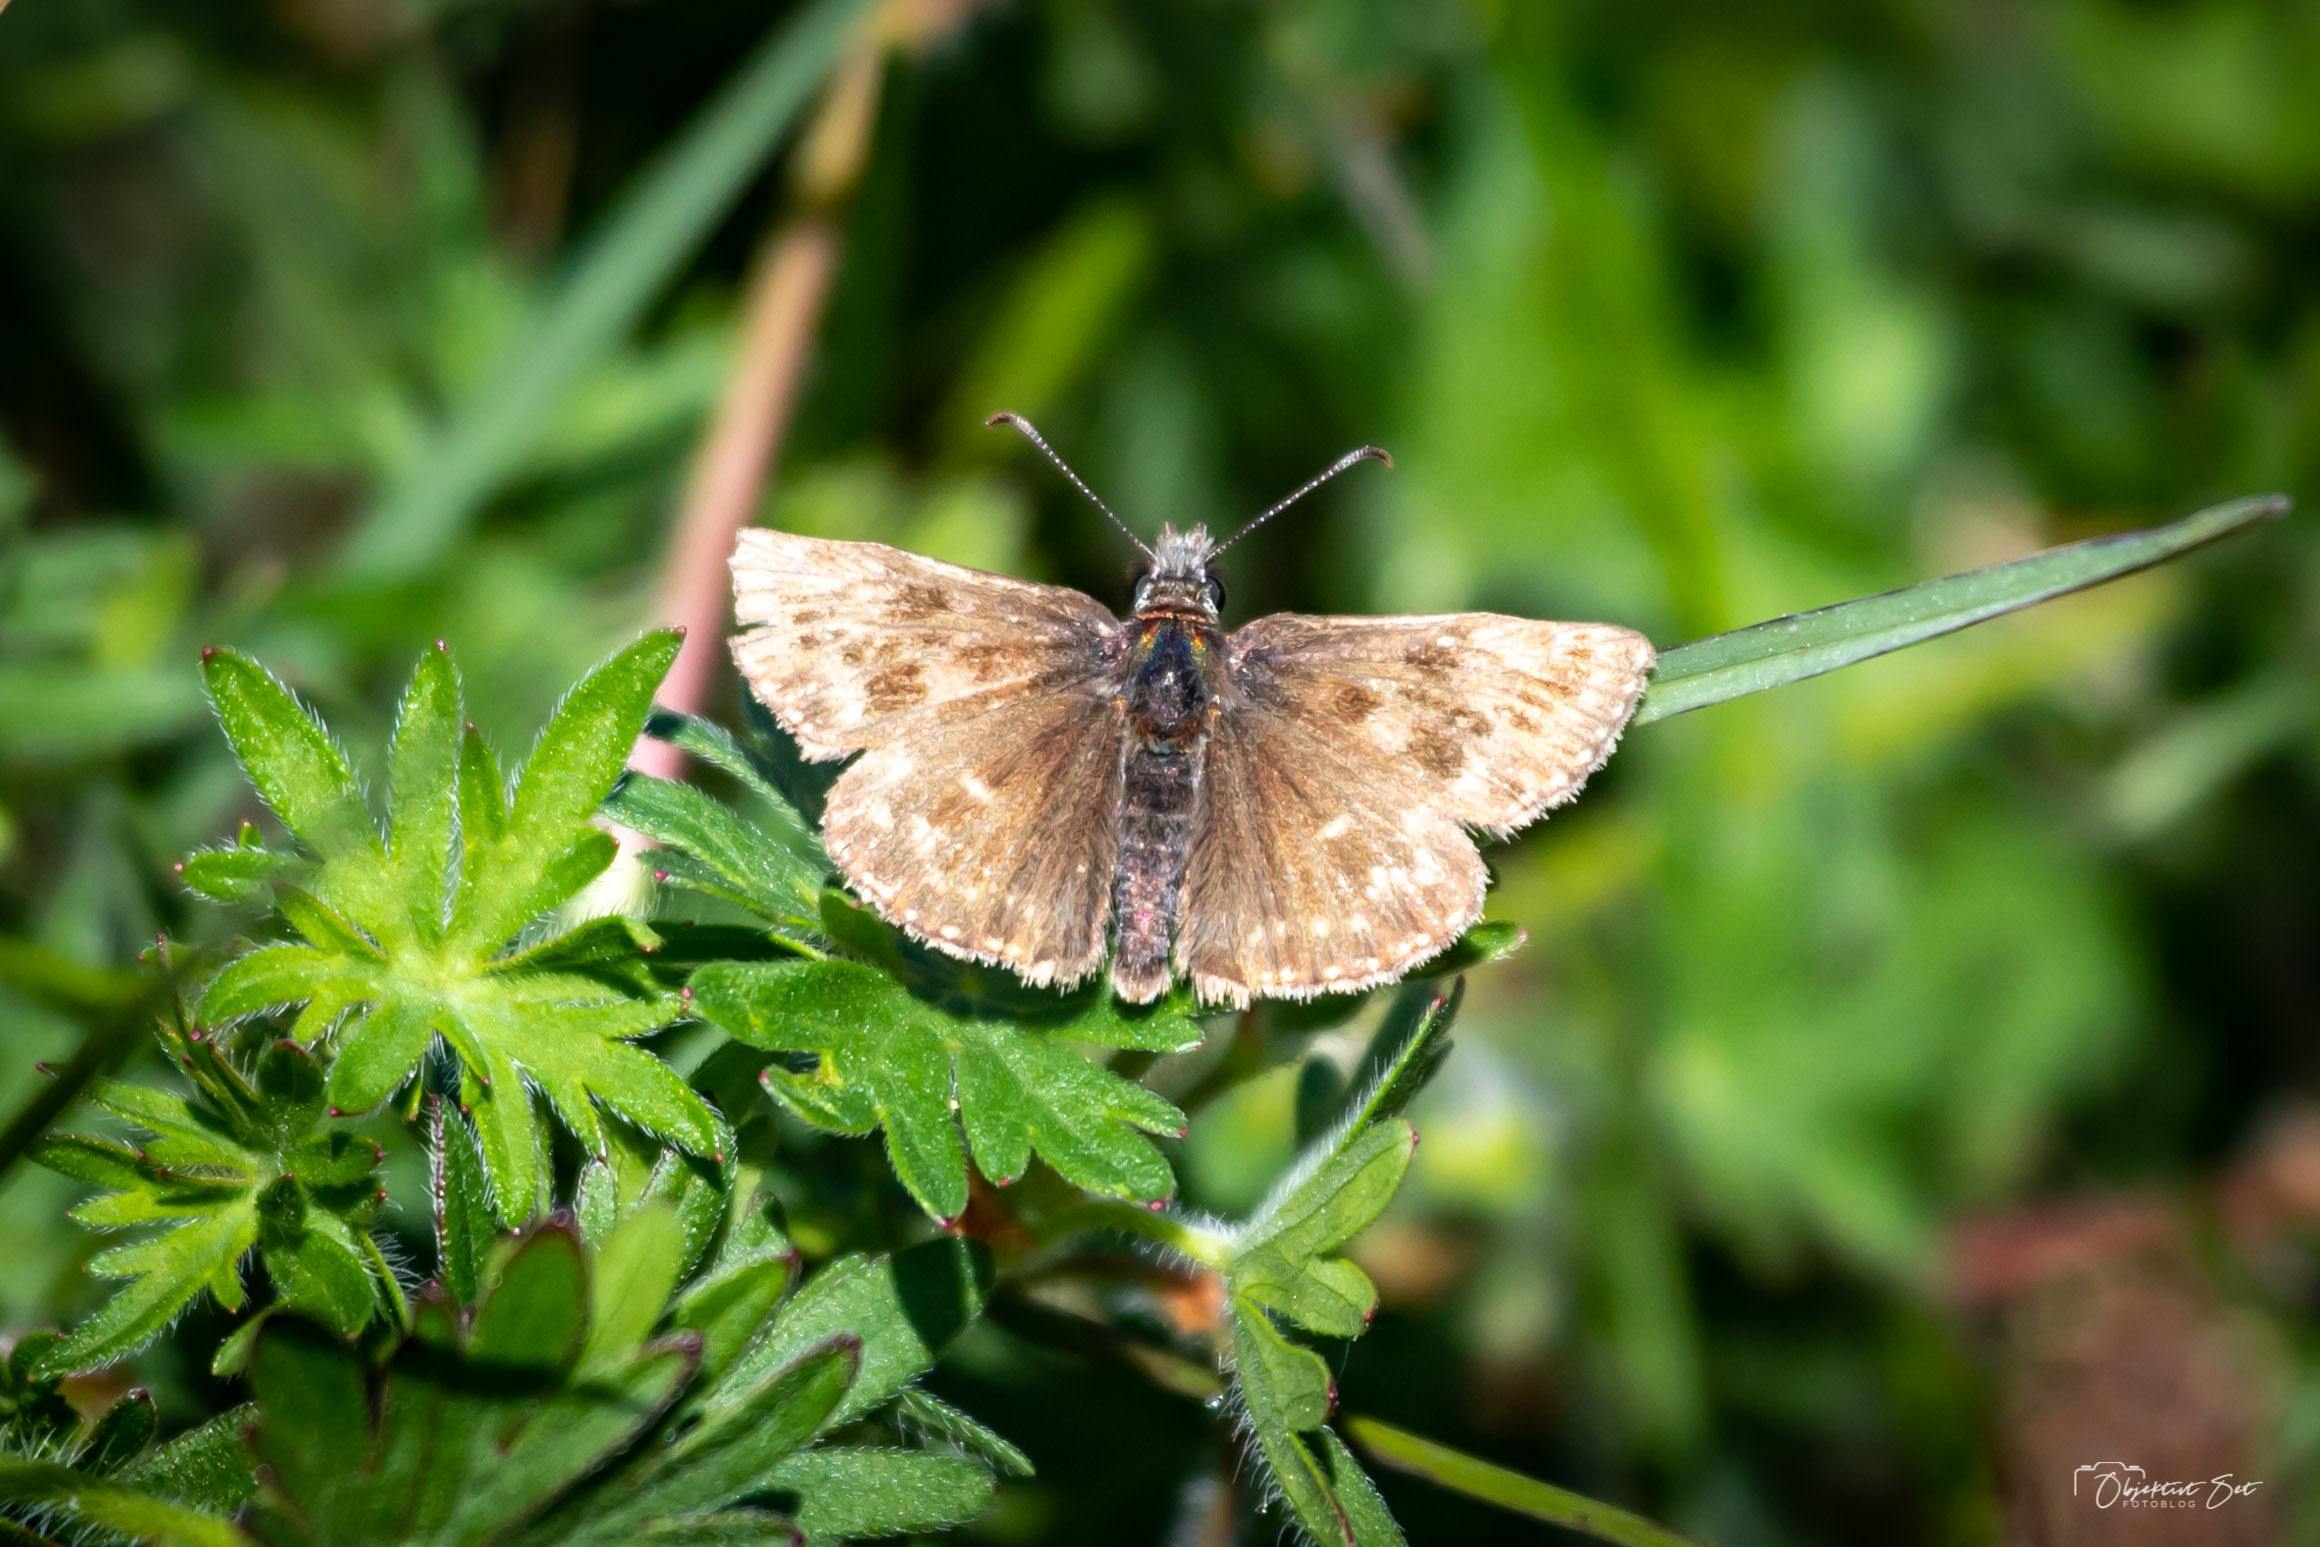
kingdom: Animalia
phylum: Arthropoda
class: Insecta
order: Lepidoptera
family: Hesperiidae
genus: Erynnis
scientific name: Erynnis tages
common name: Gråbåndet bredpande
